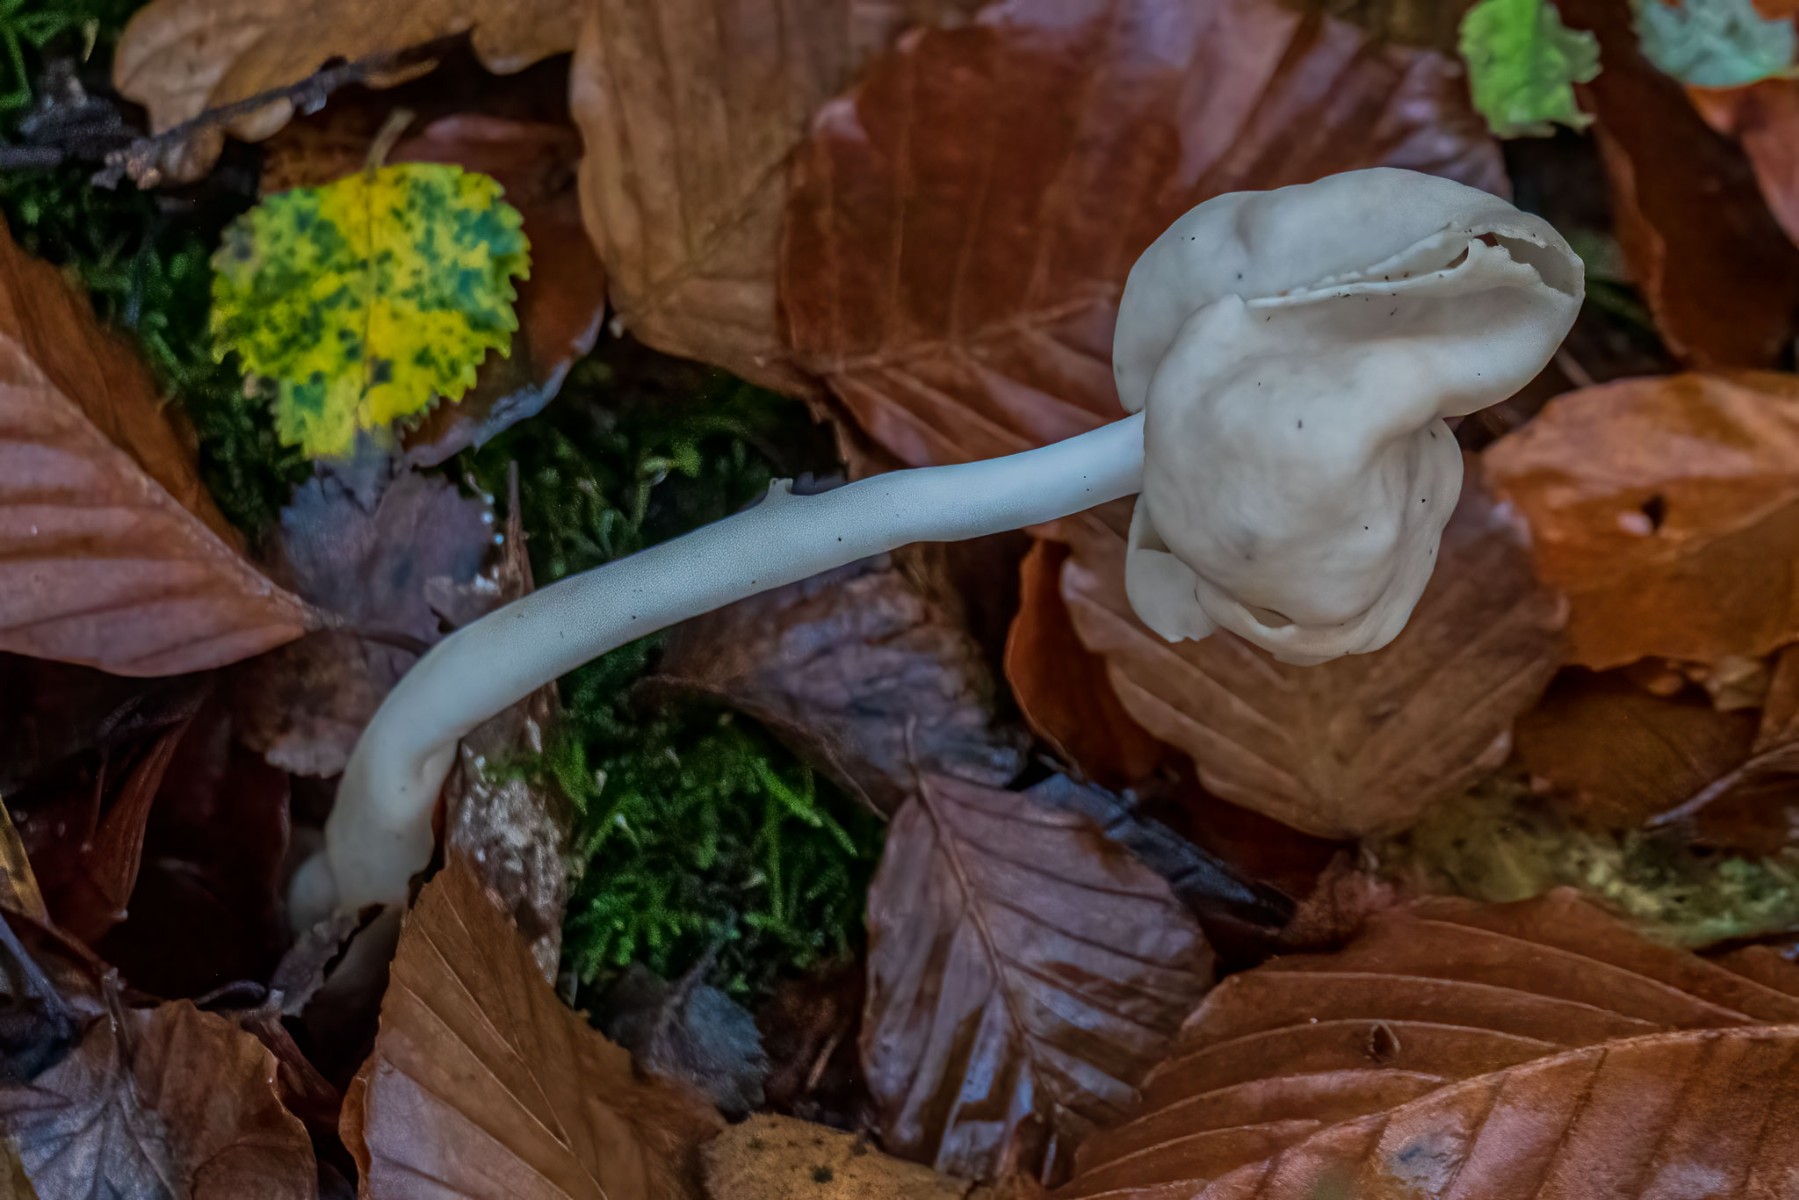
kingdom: Fungi
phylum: Ascomycota
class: Pezizomycetes
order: Pezizales
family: Helvellaceae
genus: Helvella
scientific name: Helvella elastica
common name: elastik-foldhat
